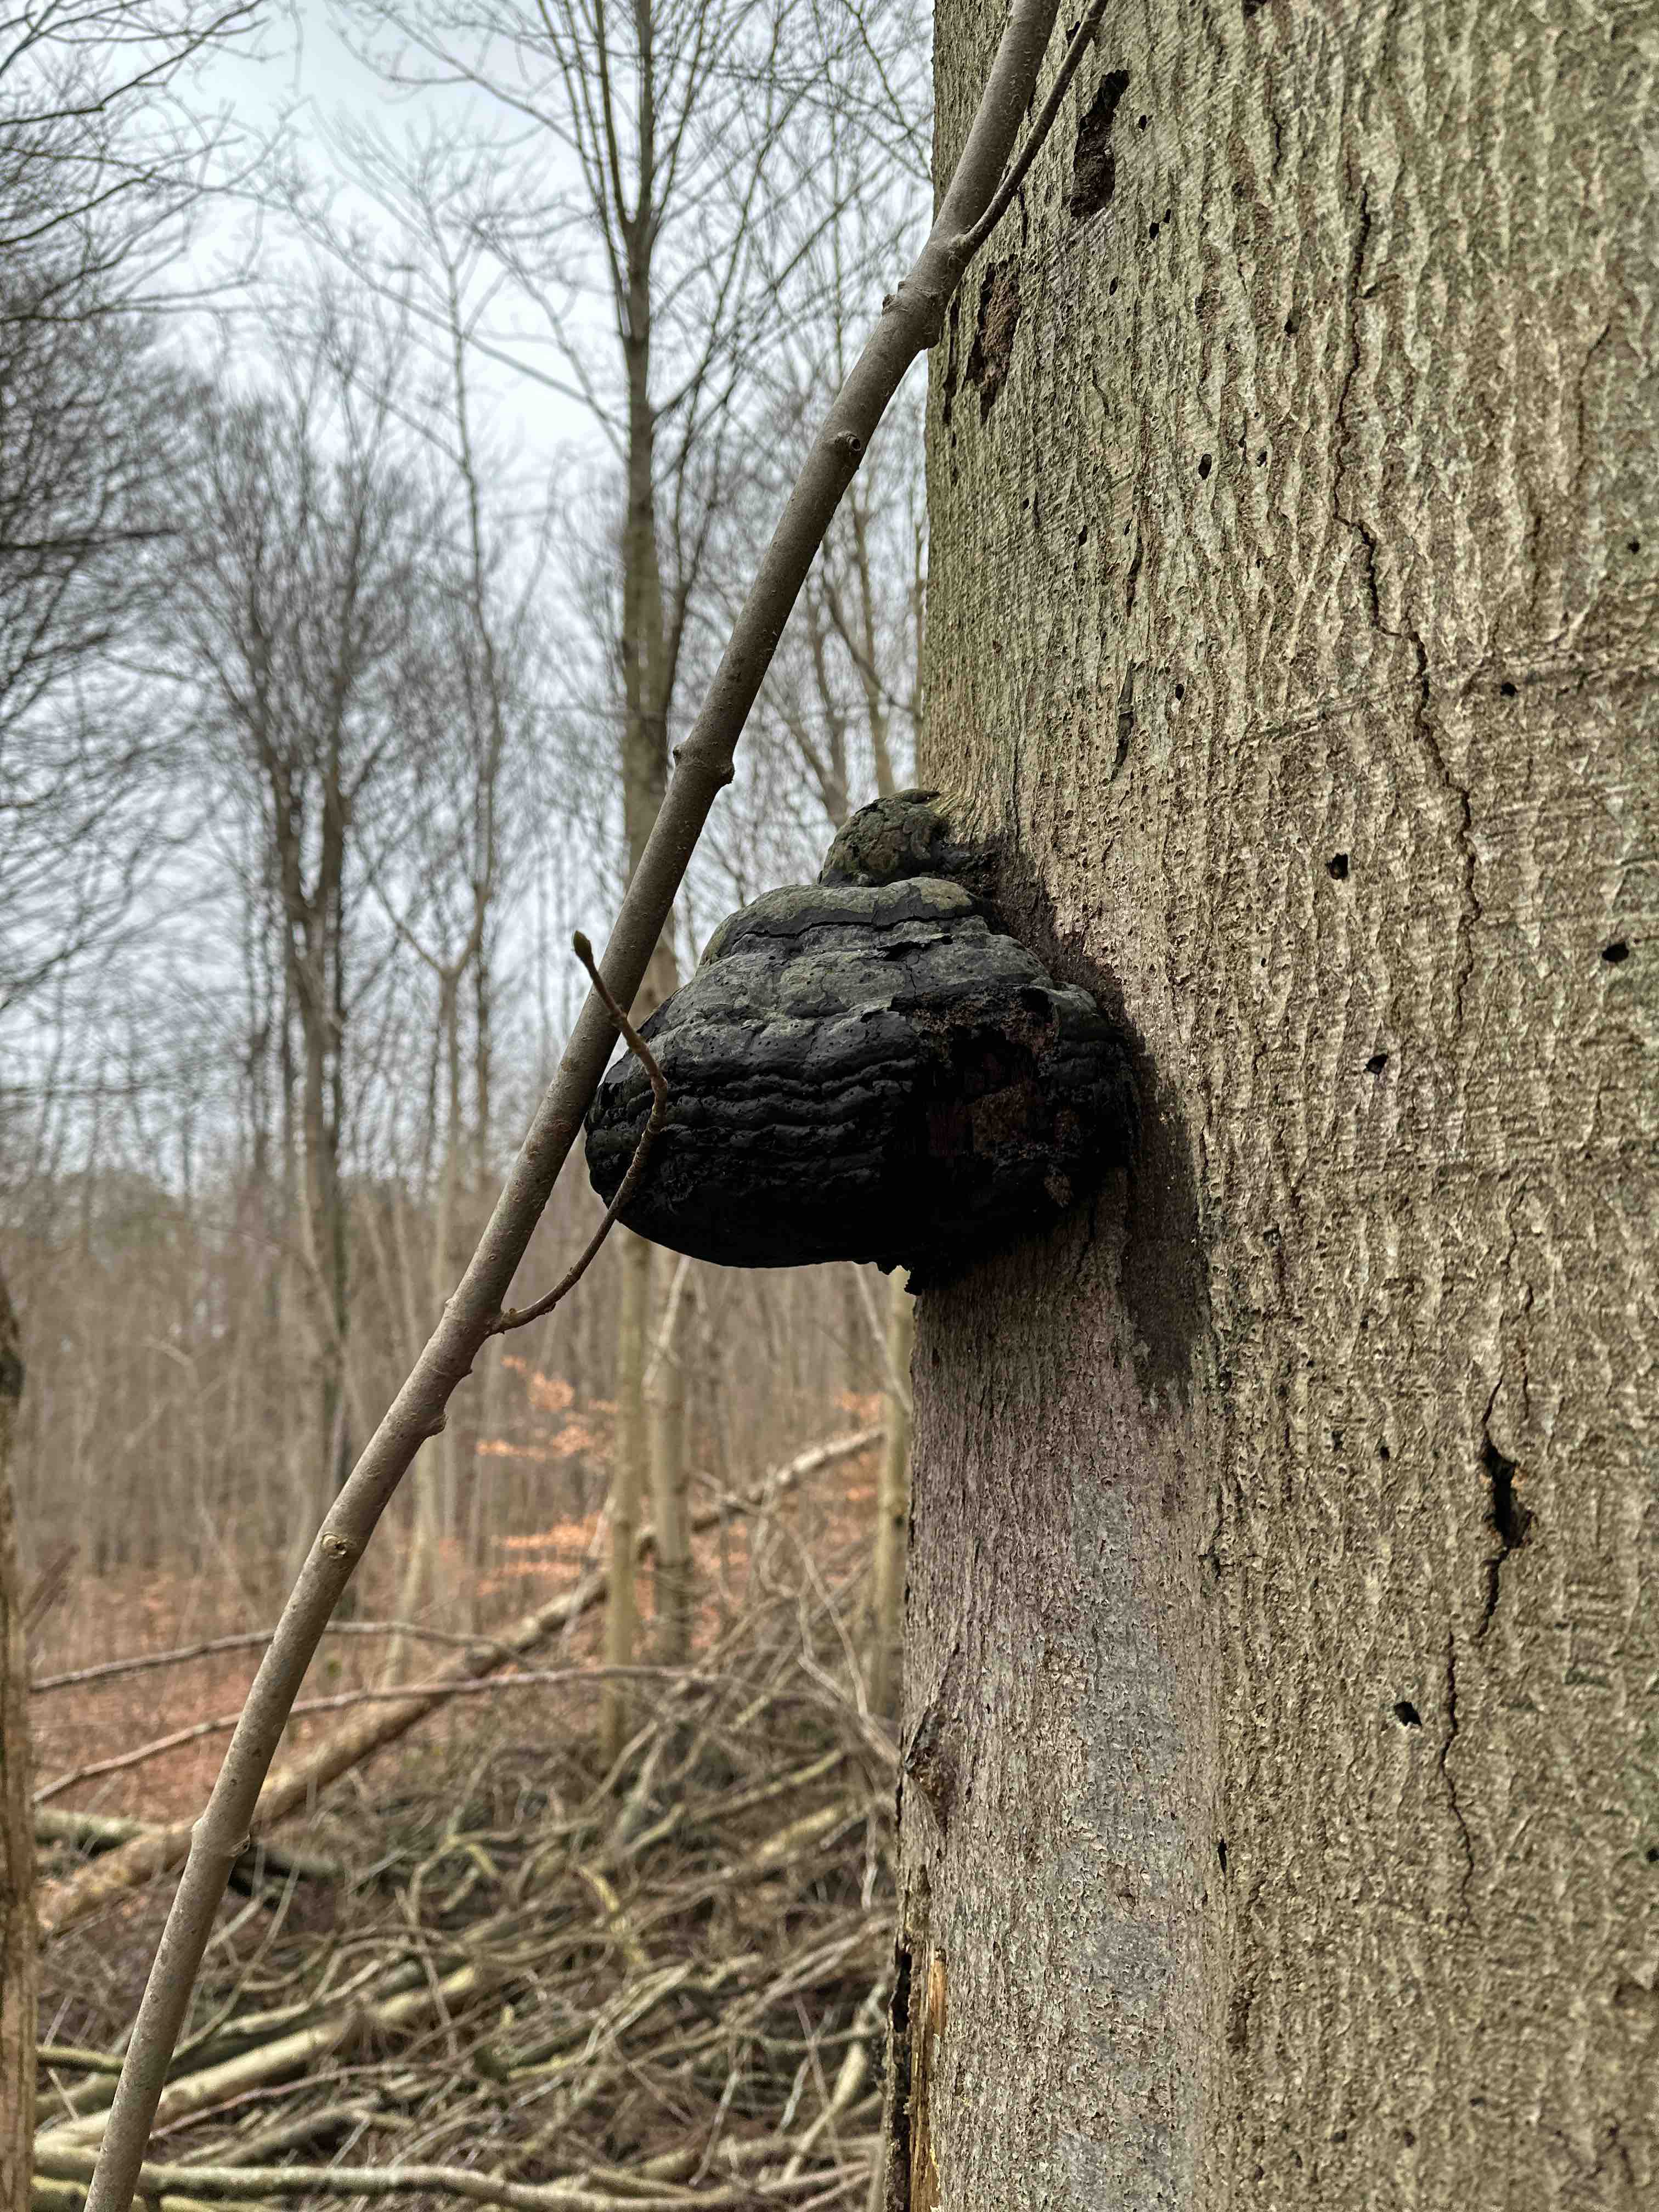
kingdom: Fungi
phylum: Basidiomycota
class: Agaricomycetes
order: Polyporales
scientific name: Polyporales
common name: poresvampordenen
